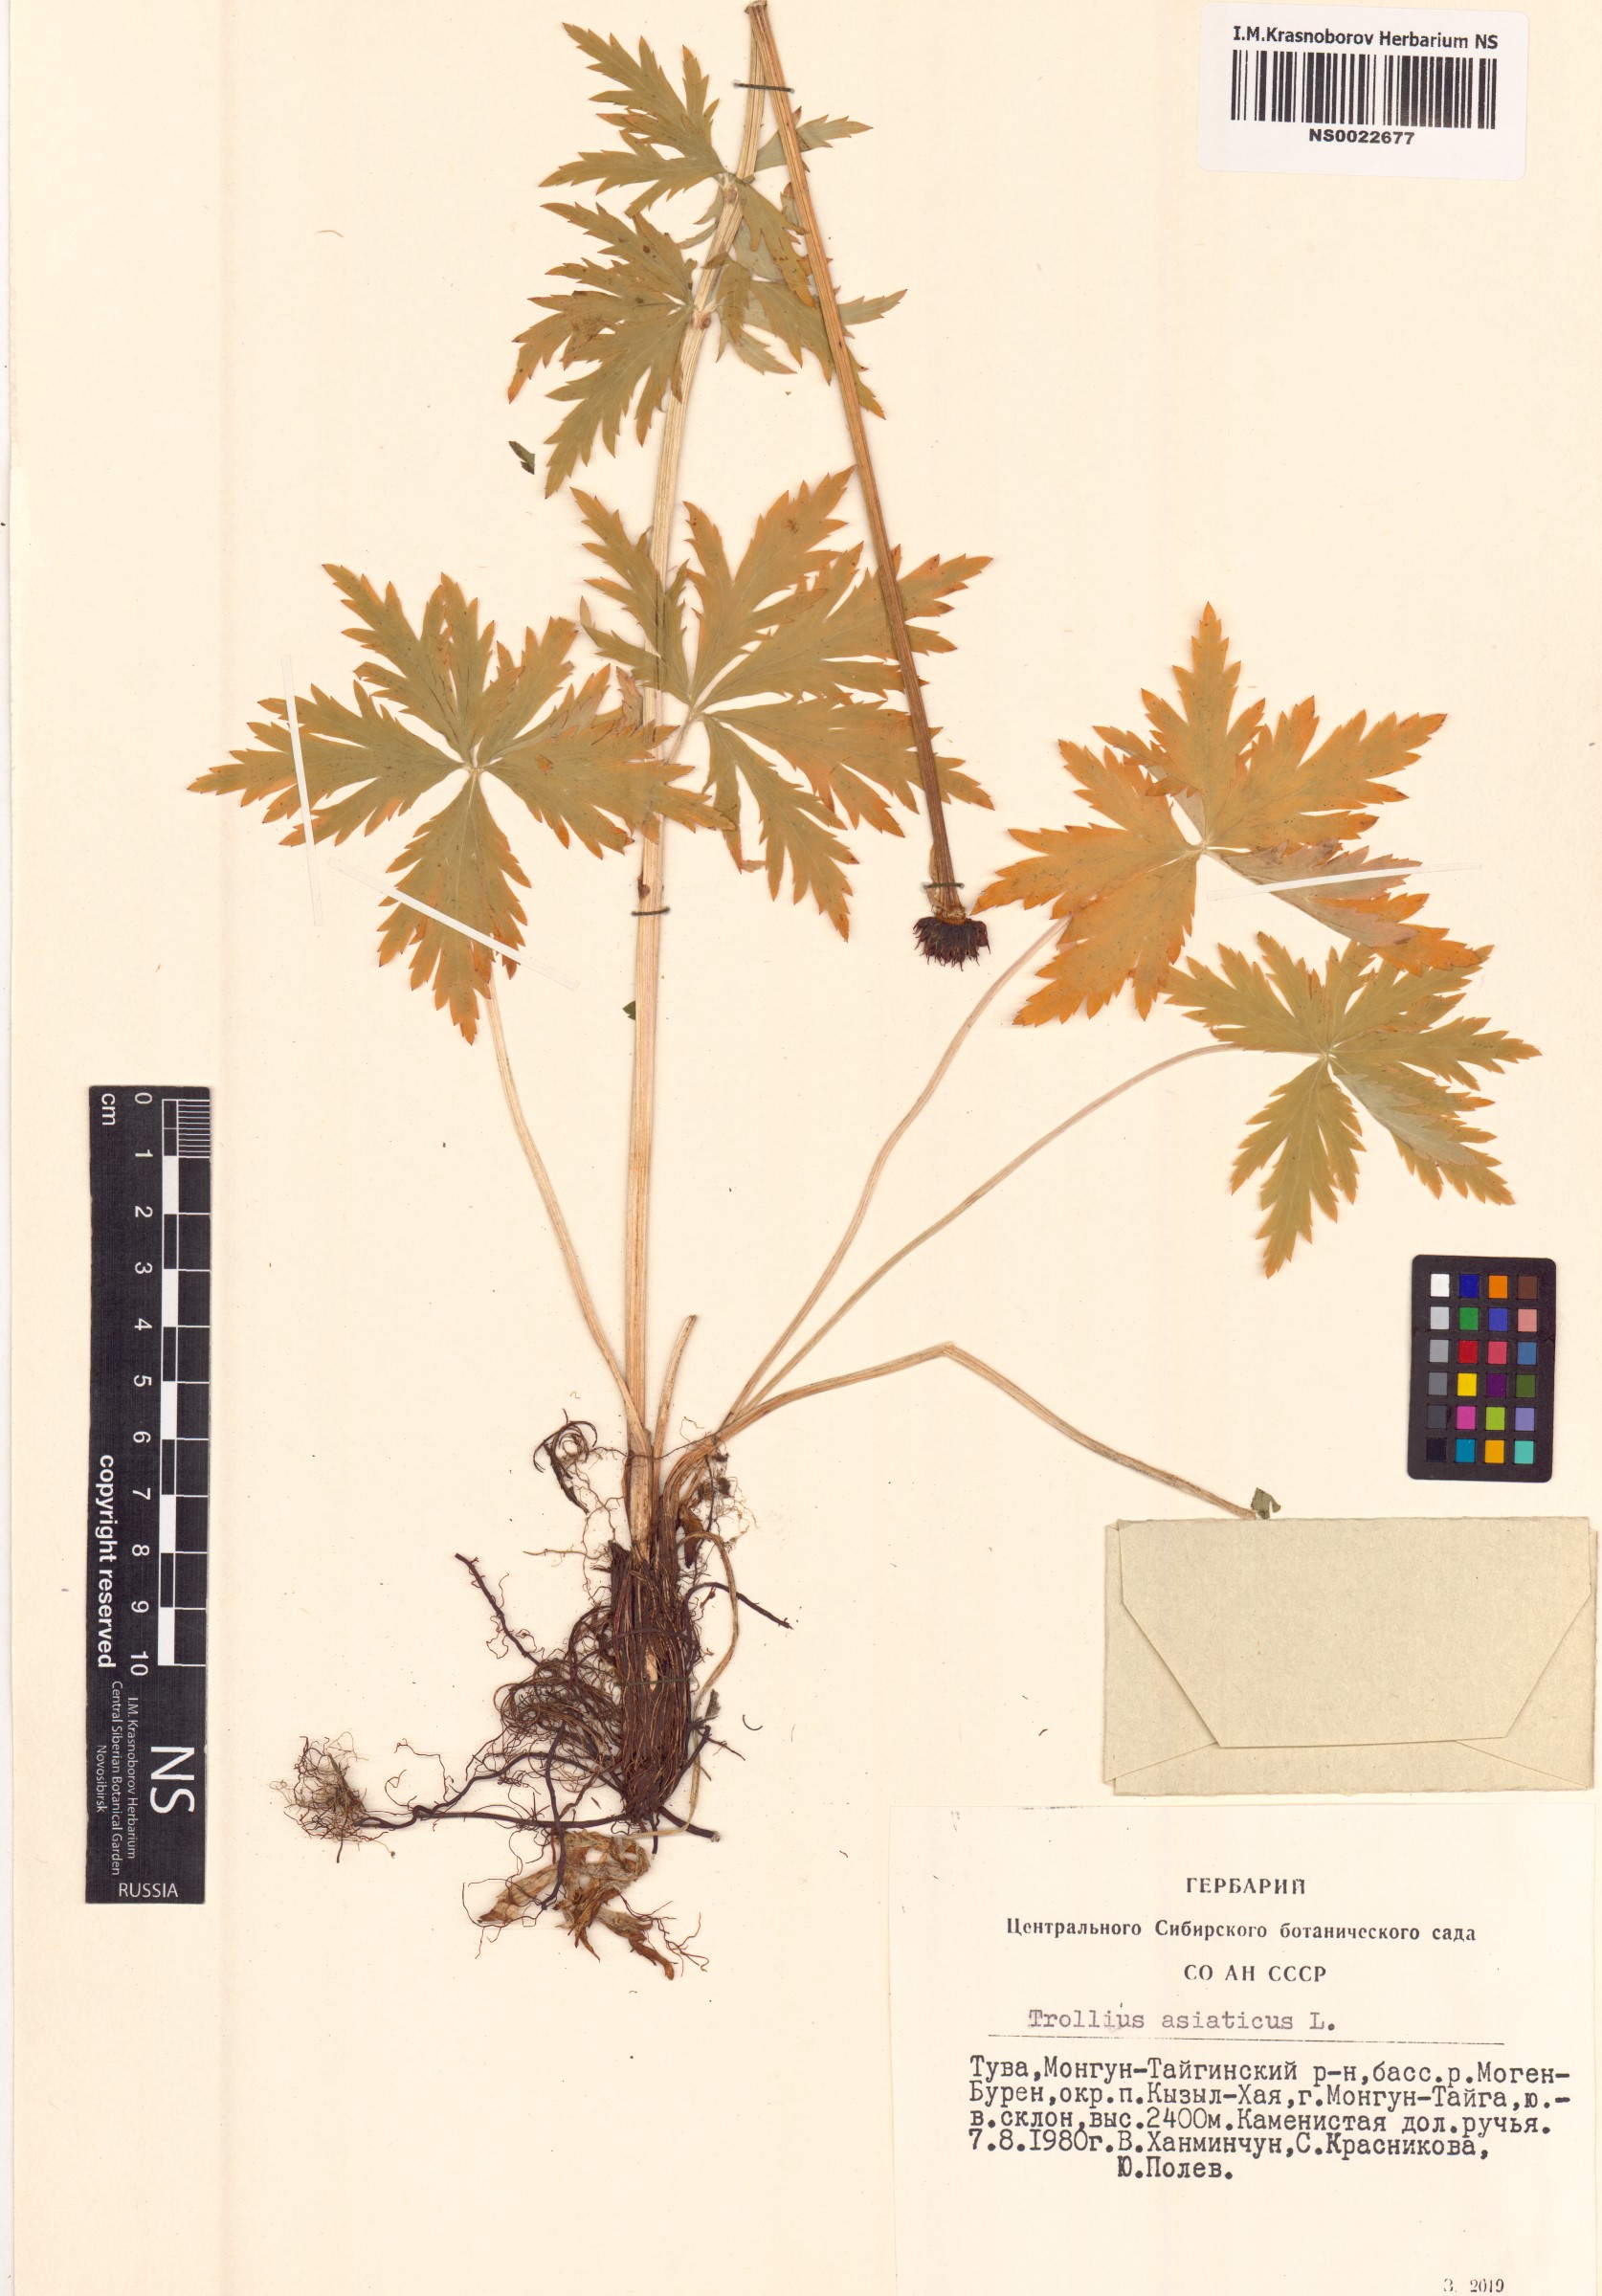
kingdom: Plantae
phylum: Tracheophyta
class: Magnoliopsida
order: Ranunculales
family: Ranunculaceae
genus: Trollius
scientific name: Trollius asiaticus
